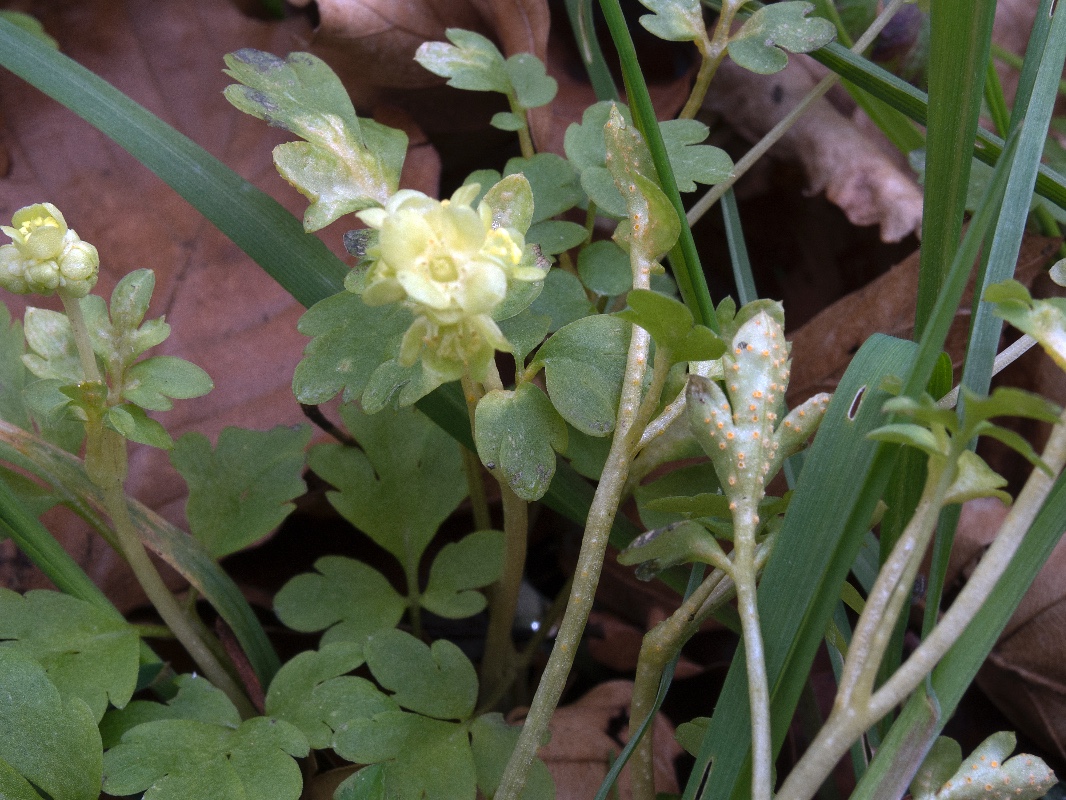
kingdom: Fungi
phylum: Basidiomycota
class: Pucciniomycetes
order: Pucciniales
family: Pucciniaceae
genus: Puccinia
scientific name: Puccinia albescens
